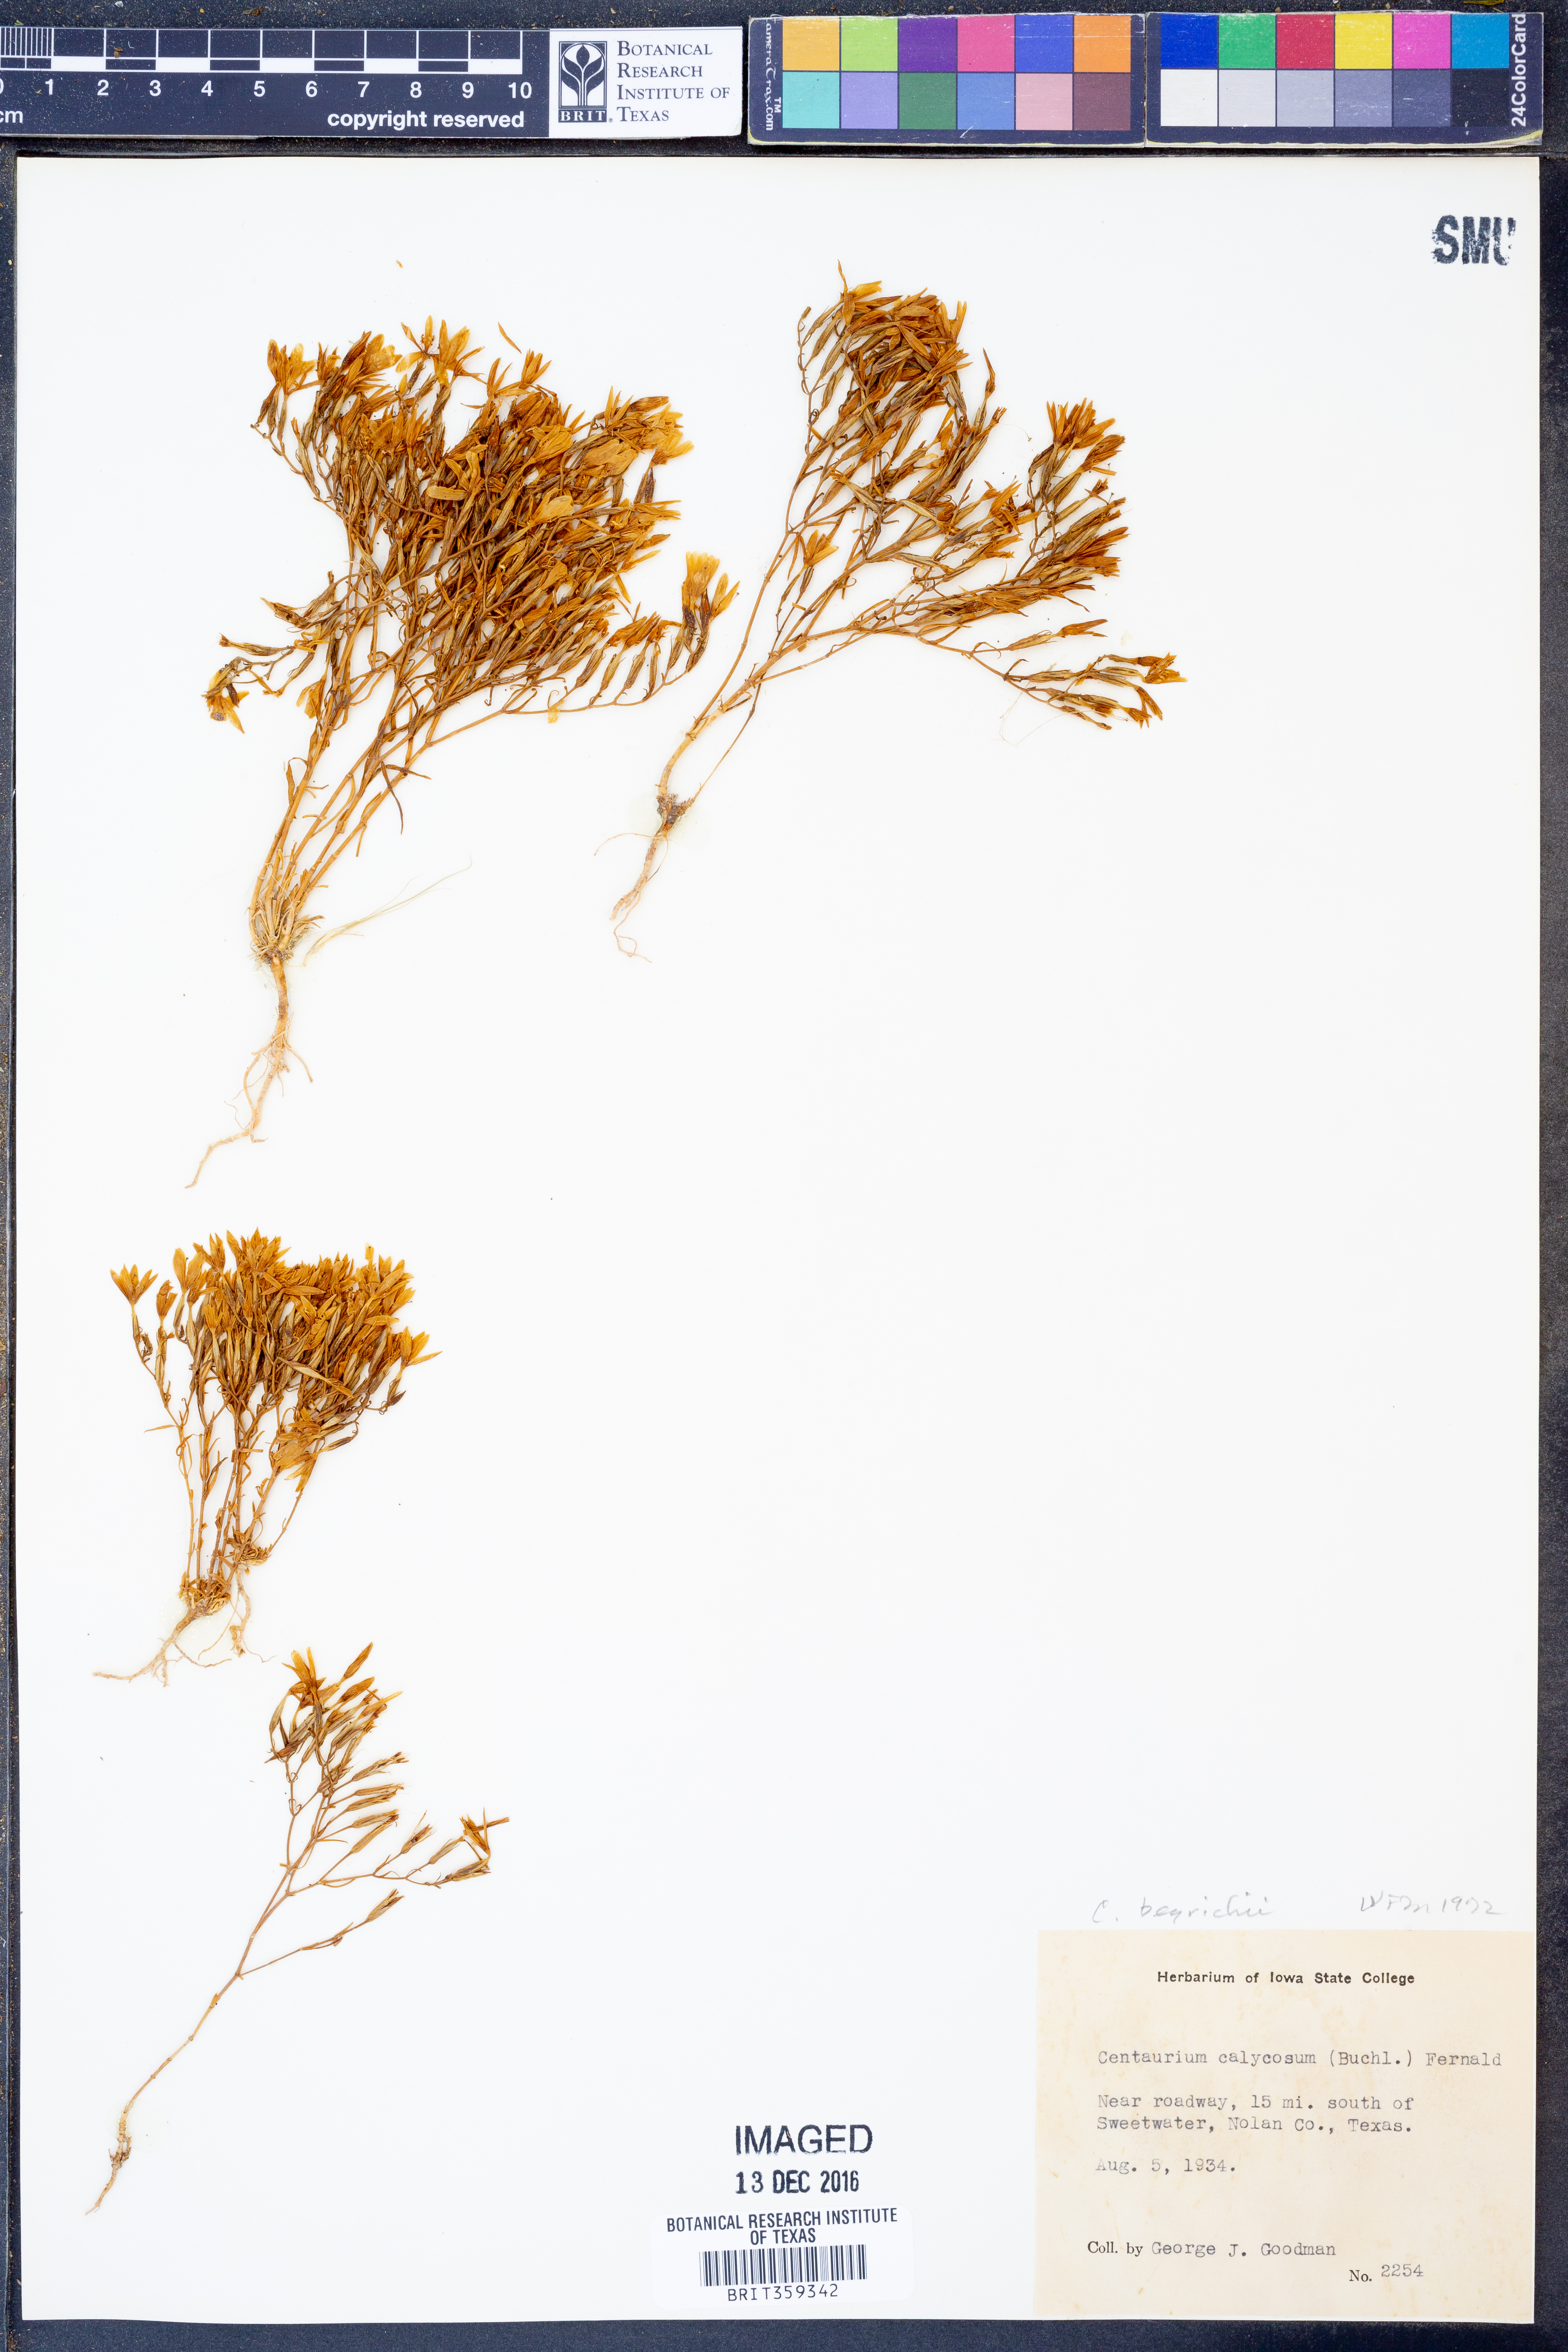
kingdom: Plantae
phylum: Tracheophyta
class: Magnoliopsida
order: Gentianales
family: Gentianaceae
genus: Zeltnera
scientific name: Zeltnera beyrichii
